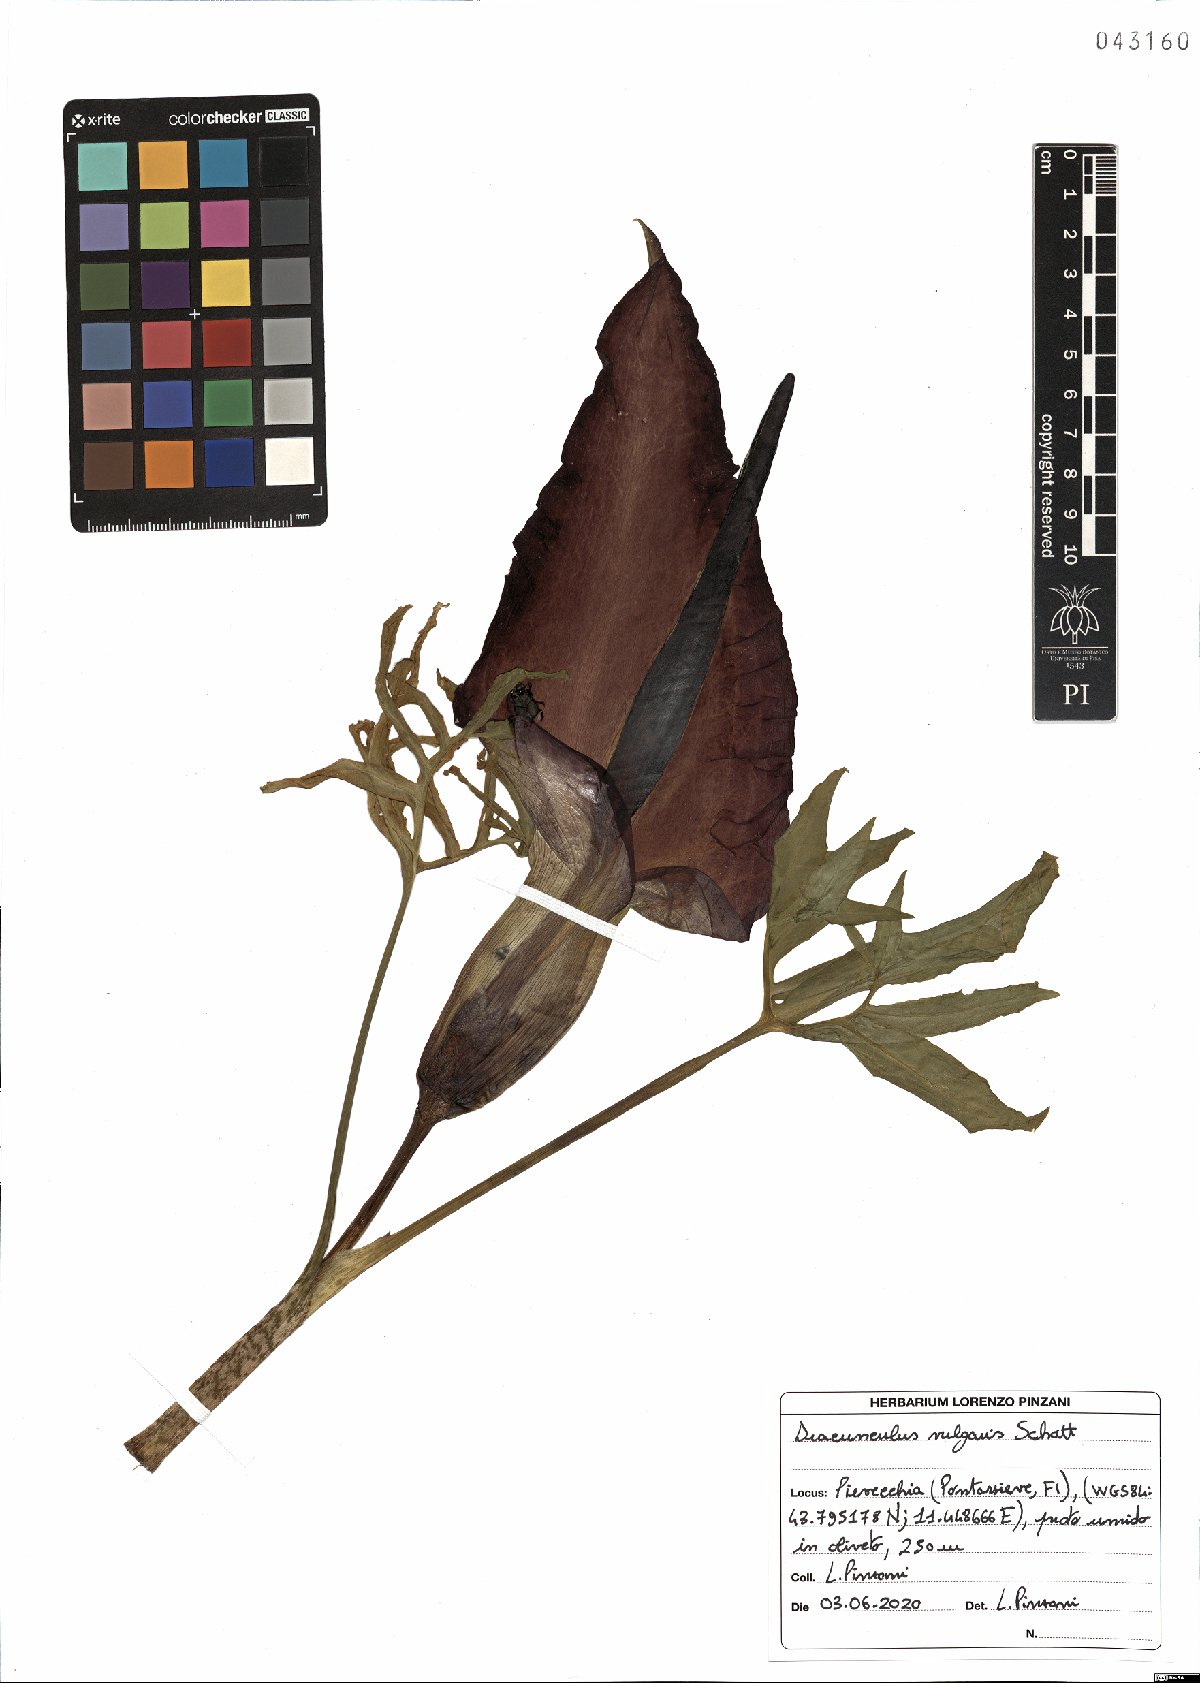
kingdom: Plantae
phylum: Tracheophyta
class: Liliopsida
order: Alismatales
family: Araceae
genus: Dracunculus
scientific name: Dracunculus vulgaris
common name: Dragon arum
